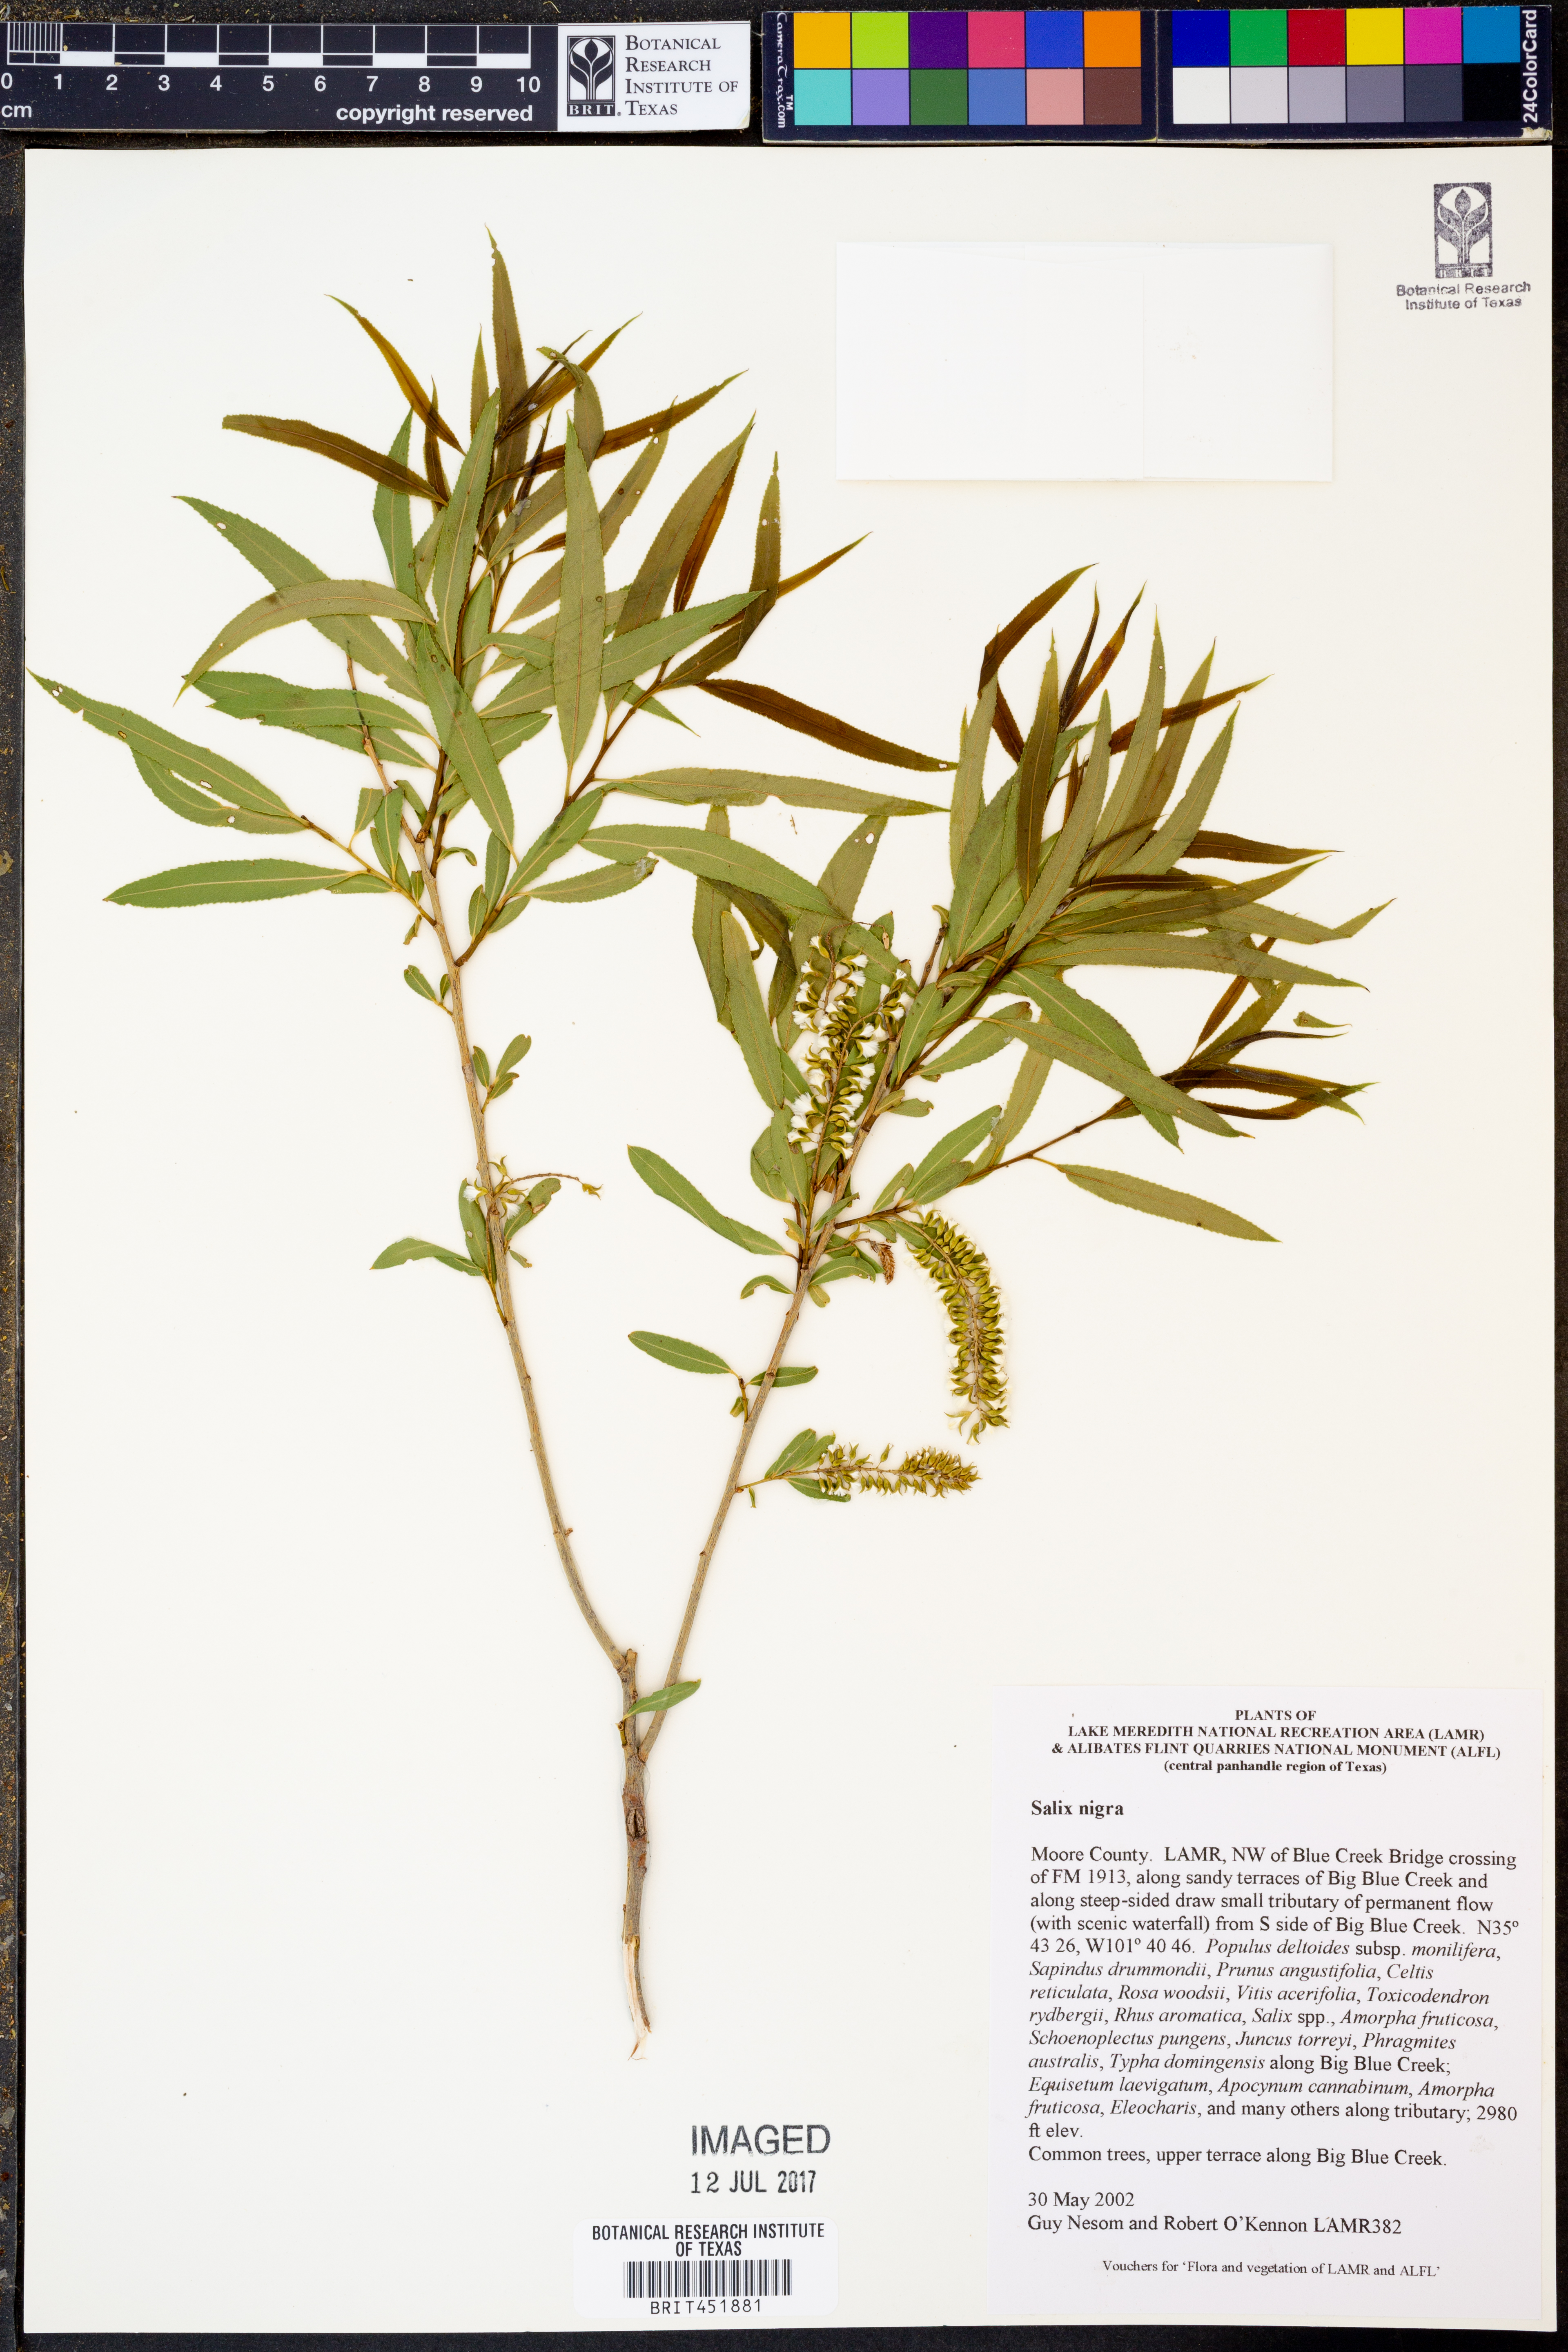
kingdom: Plantae
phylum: Tracheophyta
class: Magnoliopsida
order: Malpighiales
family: Salicaceae
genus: Salix
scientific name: Salix nigra
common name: Black willow
